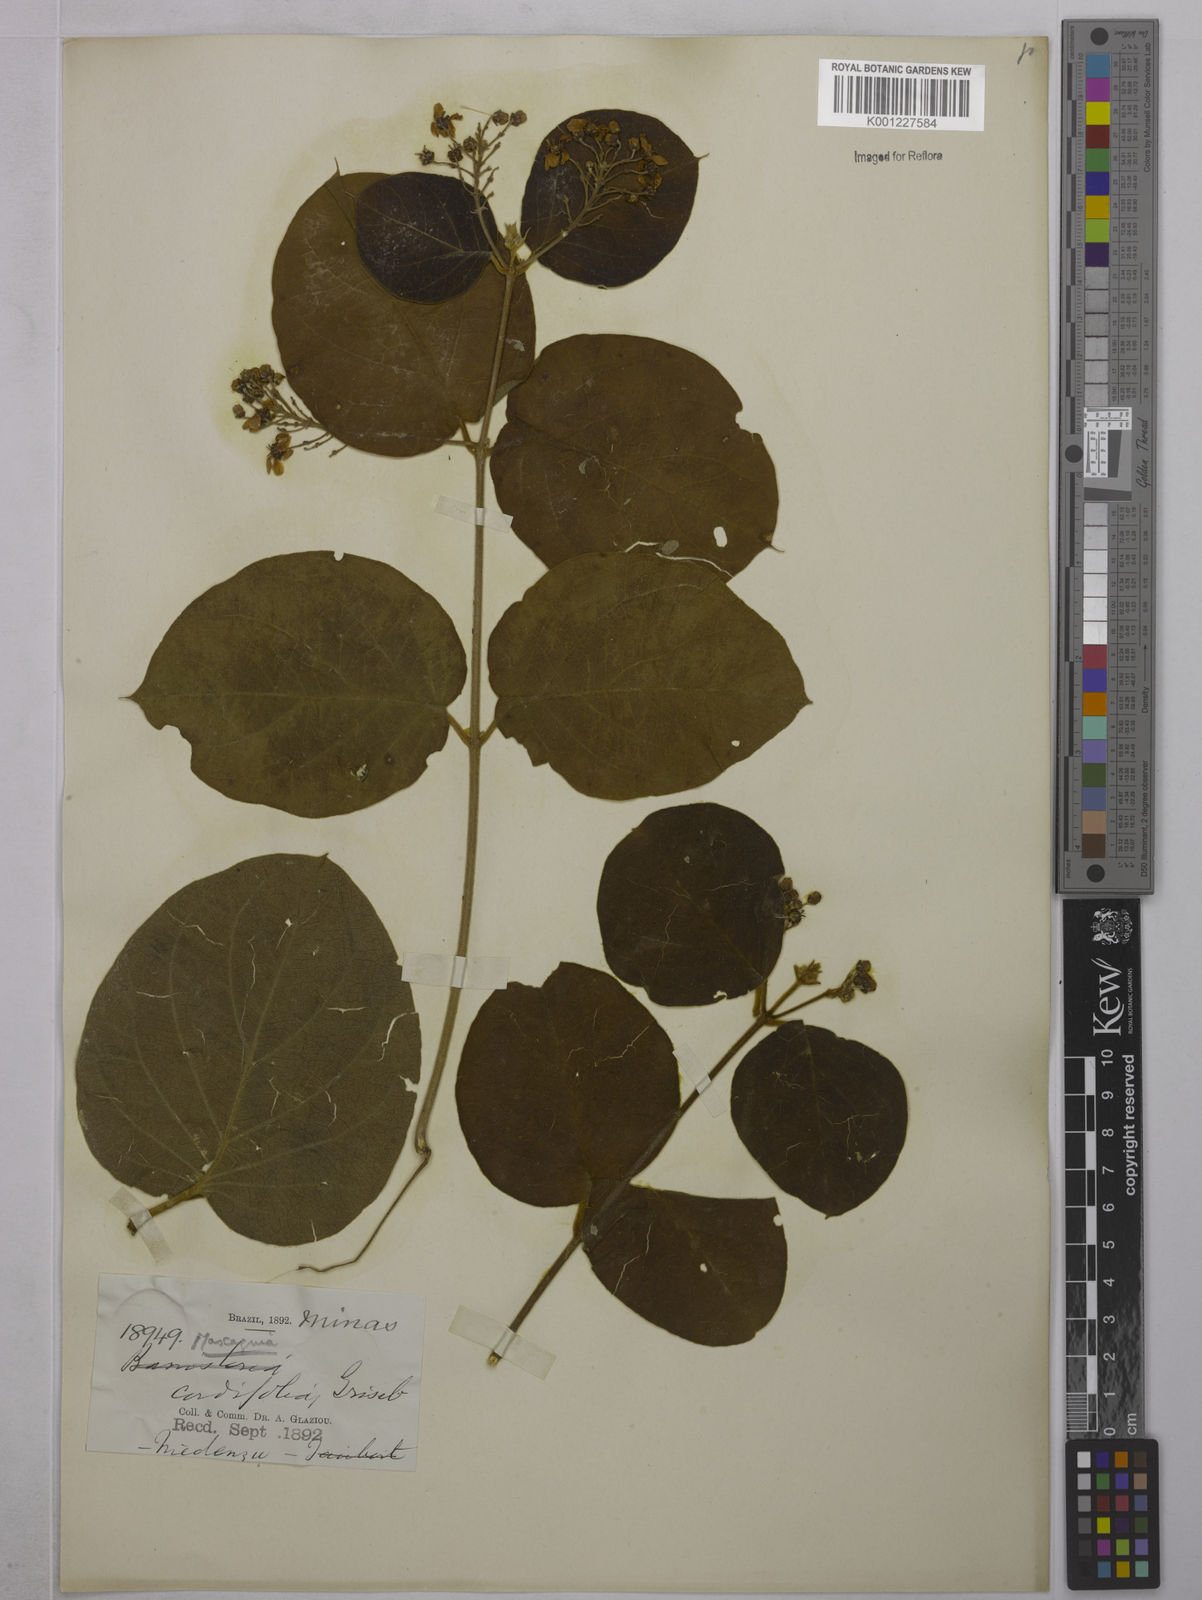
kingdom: Plantae
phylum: Tracheophyta
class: Magnoliopsida
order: Malpighiales
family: Malpighiaceae
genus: Mascagnia
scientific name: Mascagnia cordifolia
